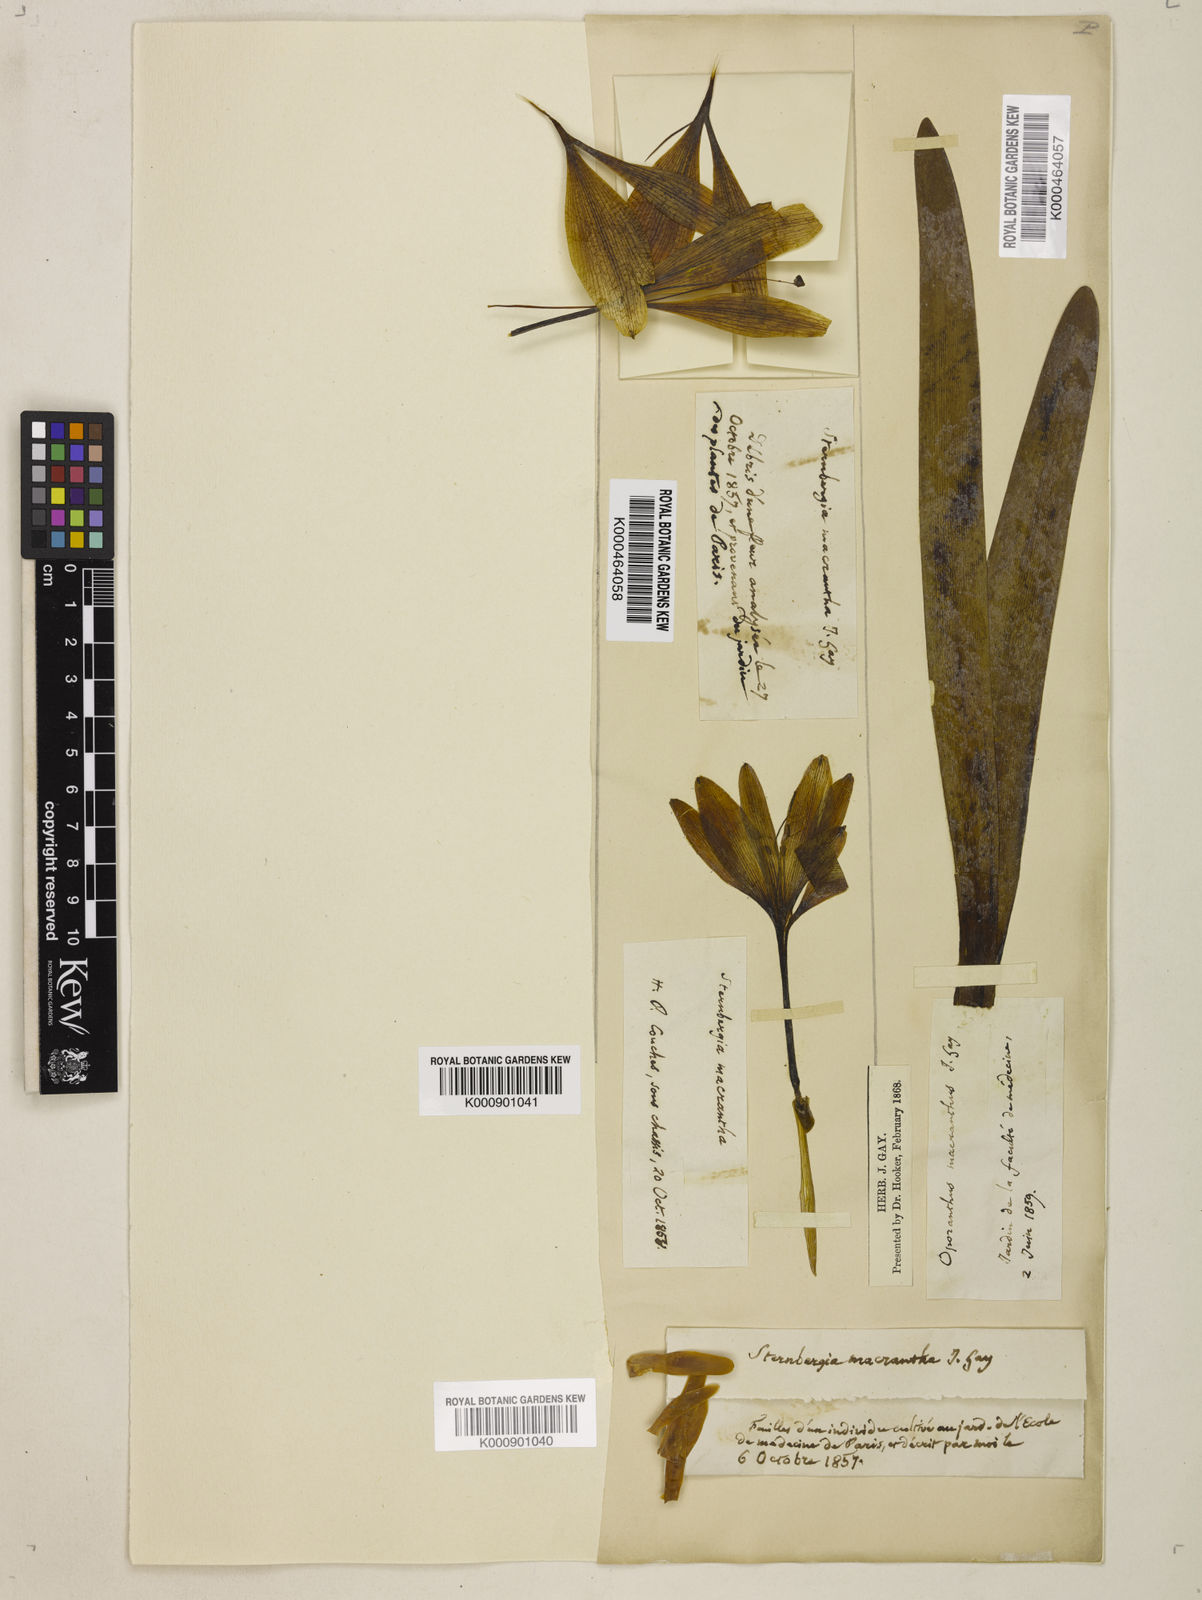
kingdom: Plantae
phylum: Tracheophyta
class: Liliopsida
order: Asparagales
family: Amaryllidaceae
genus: Sternbergia
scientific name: Sternbergia
